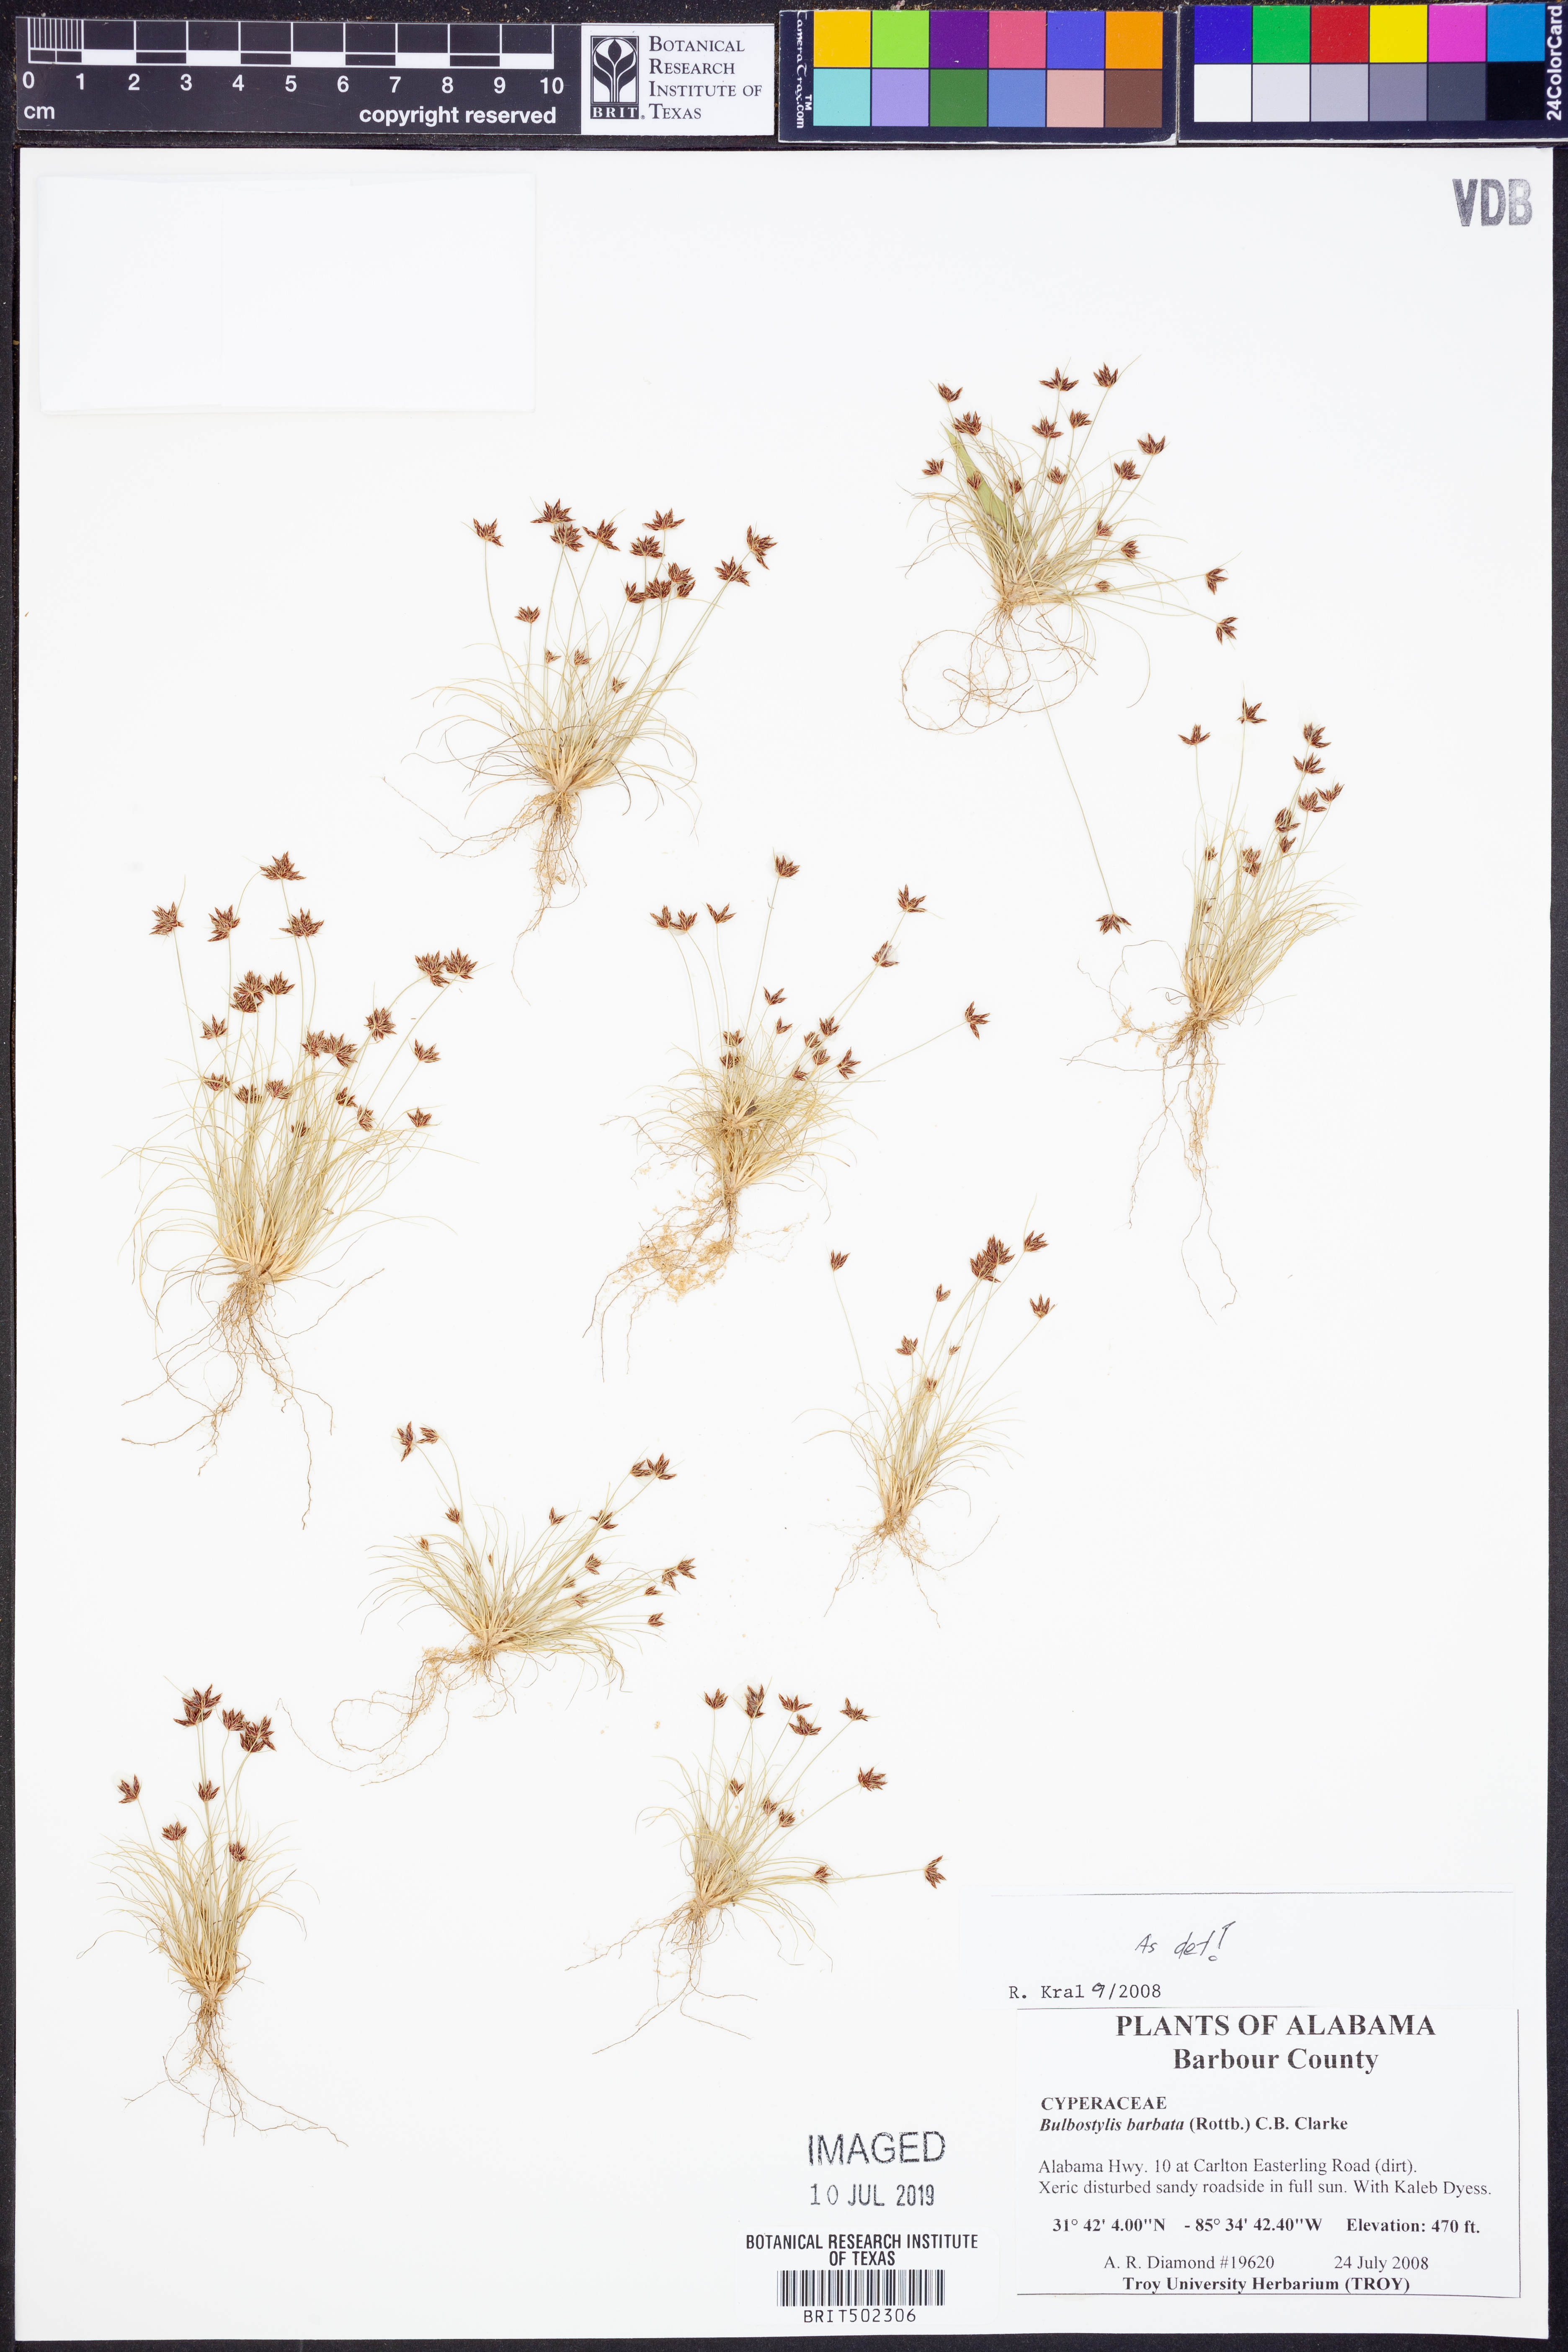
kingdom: Plantae
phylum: Tracheophyta
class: Liliopsida
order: Poales
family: Cyperaceae
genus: Bulbostylis
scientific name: Bulbostylis barbata
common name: Watergrass
